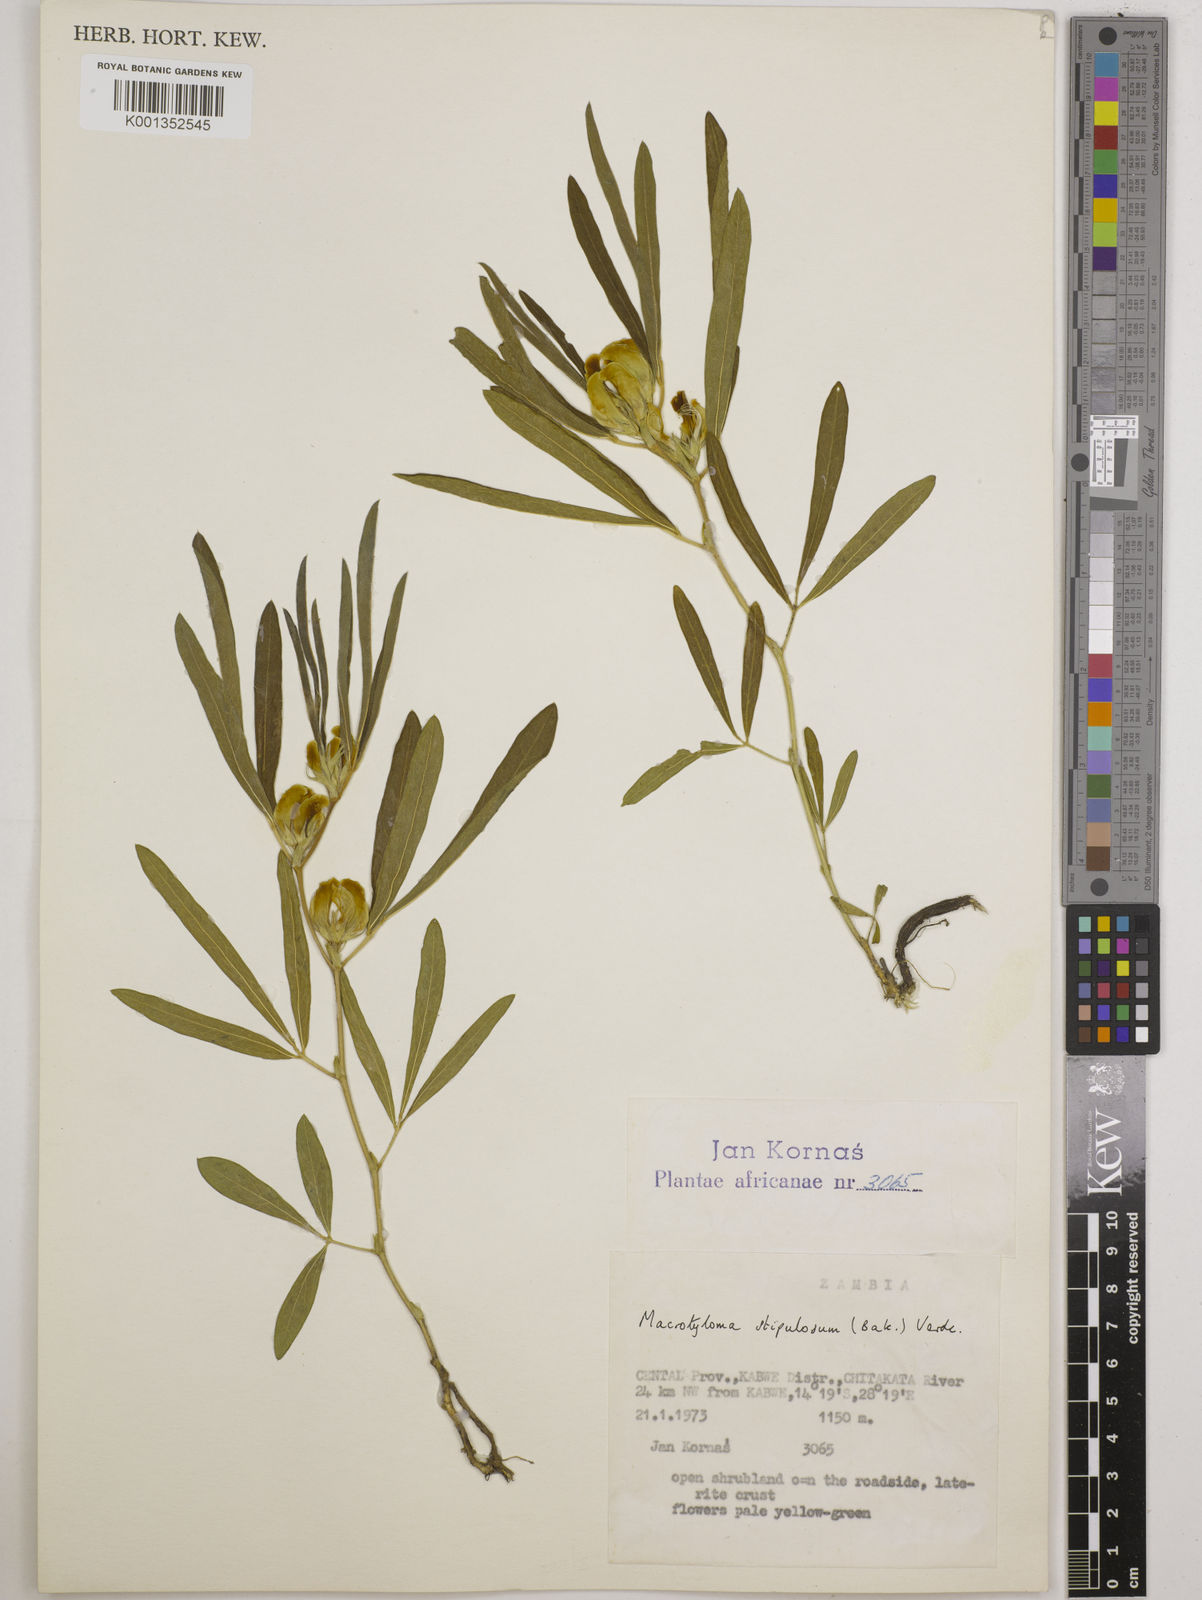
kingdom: Plantae
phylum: Tracheophyta
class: Magnoliopsida
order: Fabales
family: Fabaceae
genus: Macrotyloma
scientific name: Macrotyloma stipulosum
